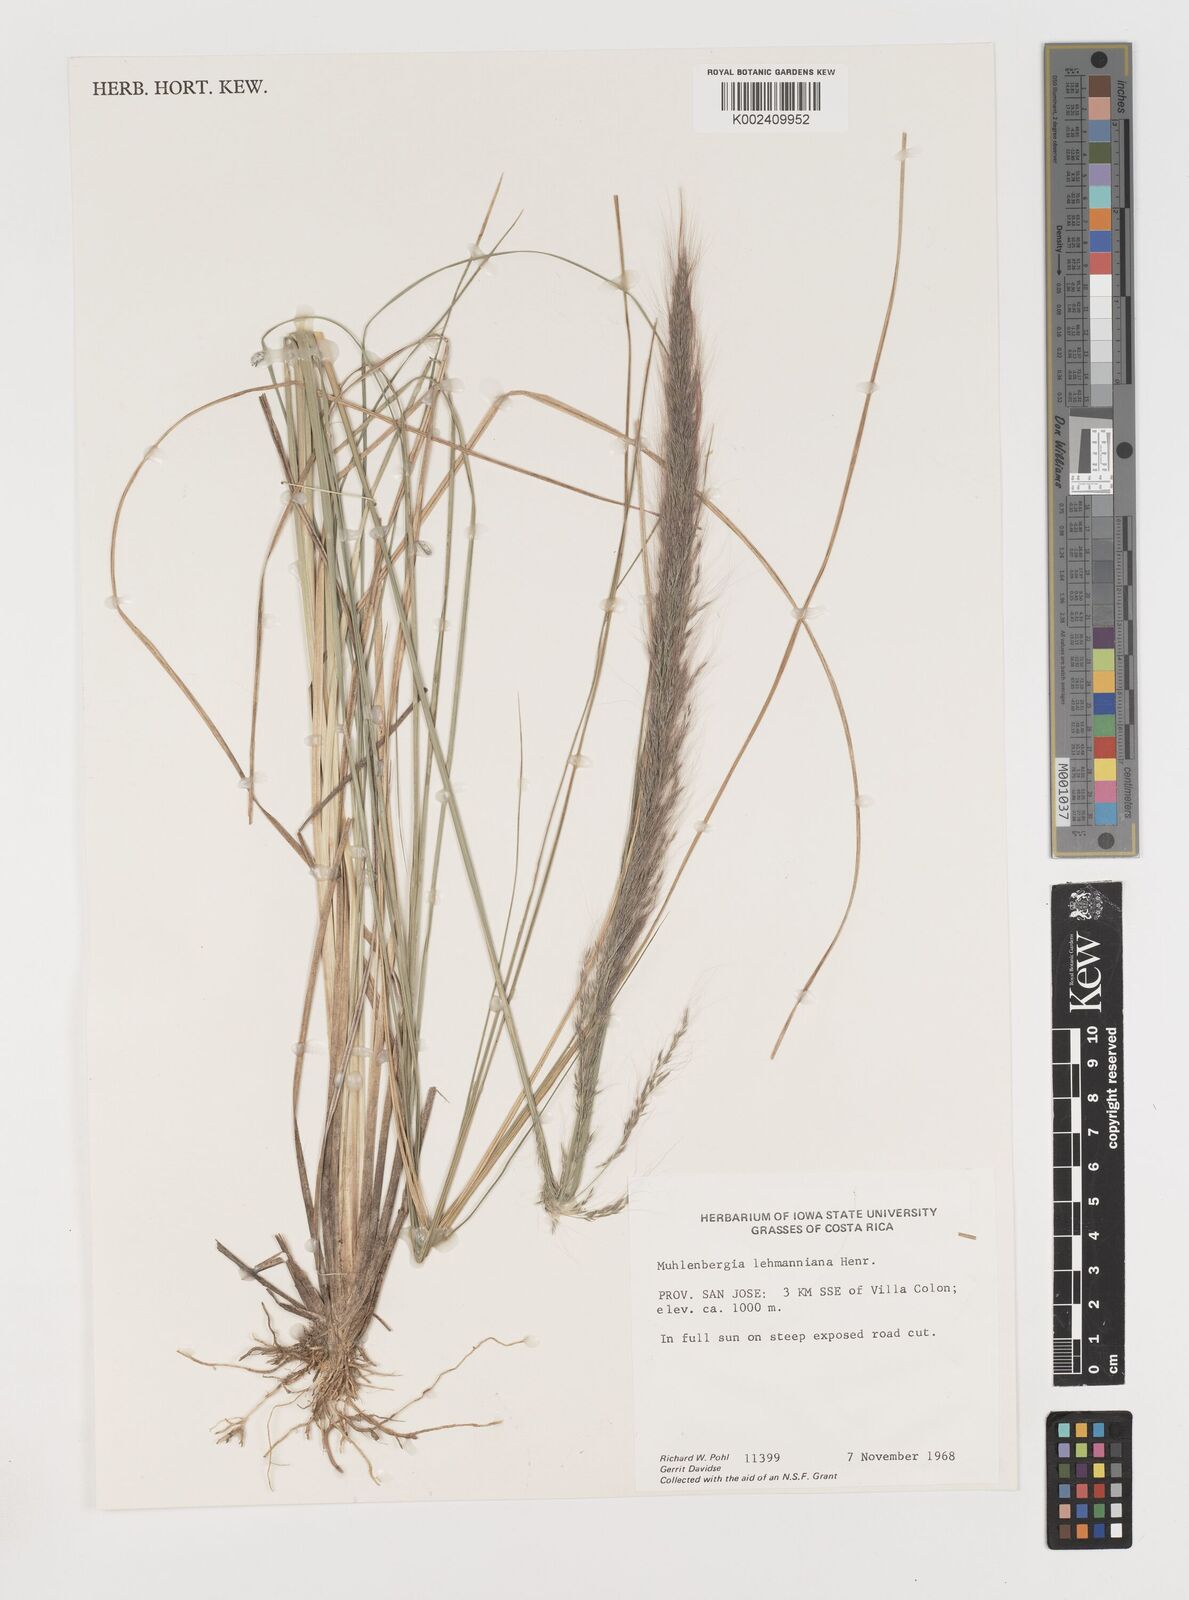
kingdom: Plantae
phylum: Tracheophyta
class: Liliopsida
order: Poales
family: Poaceae
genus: Muhlenbergia
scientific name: Muhlenbergia lehmanniana
